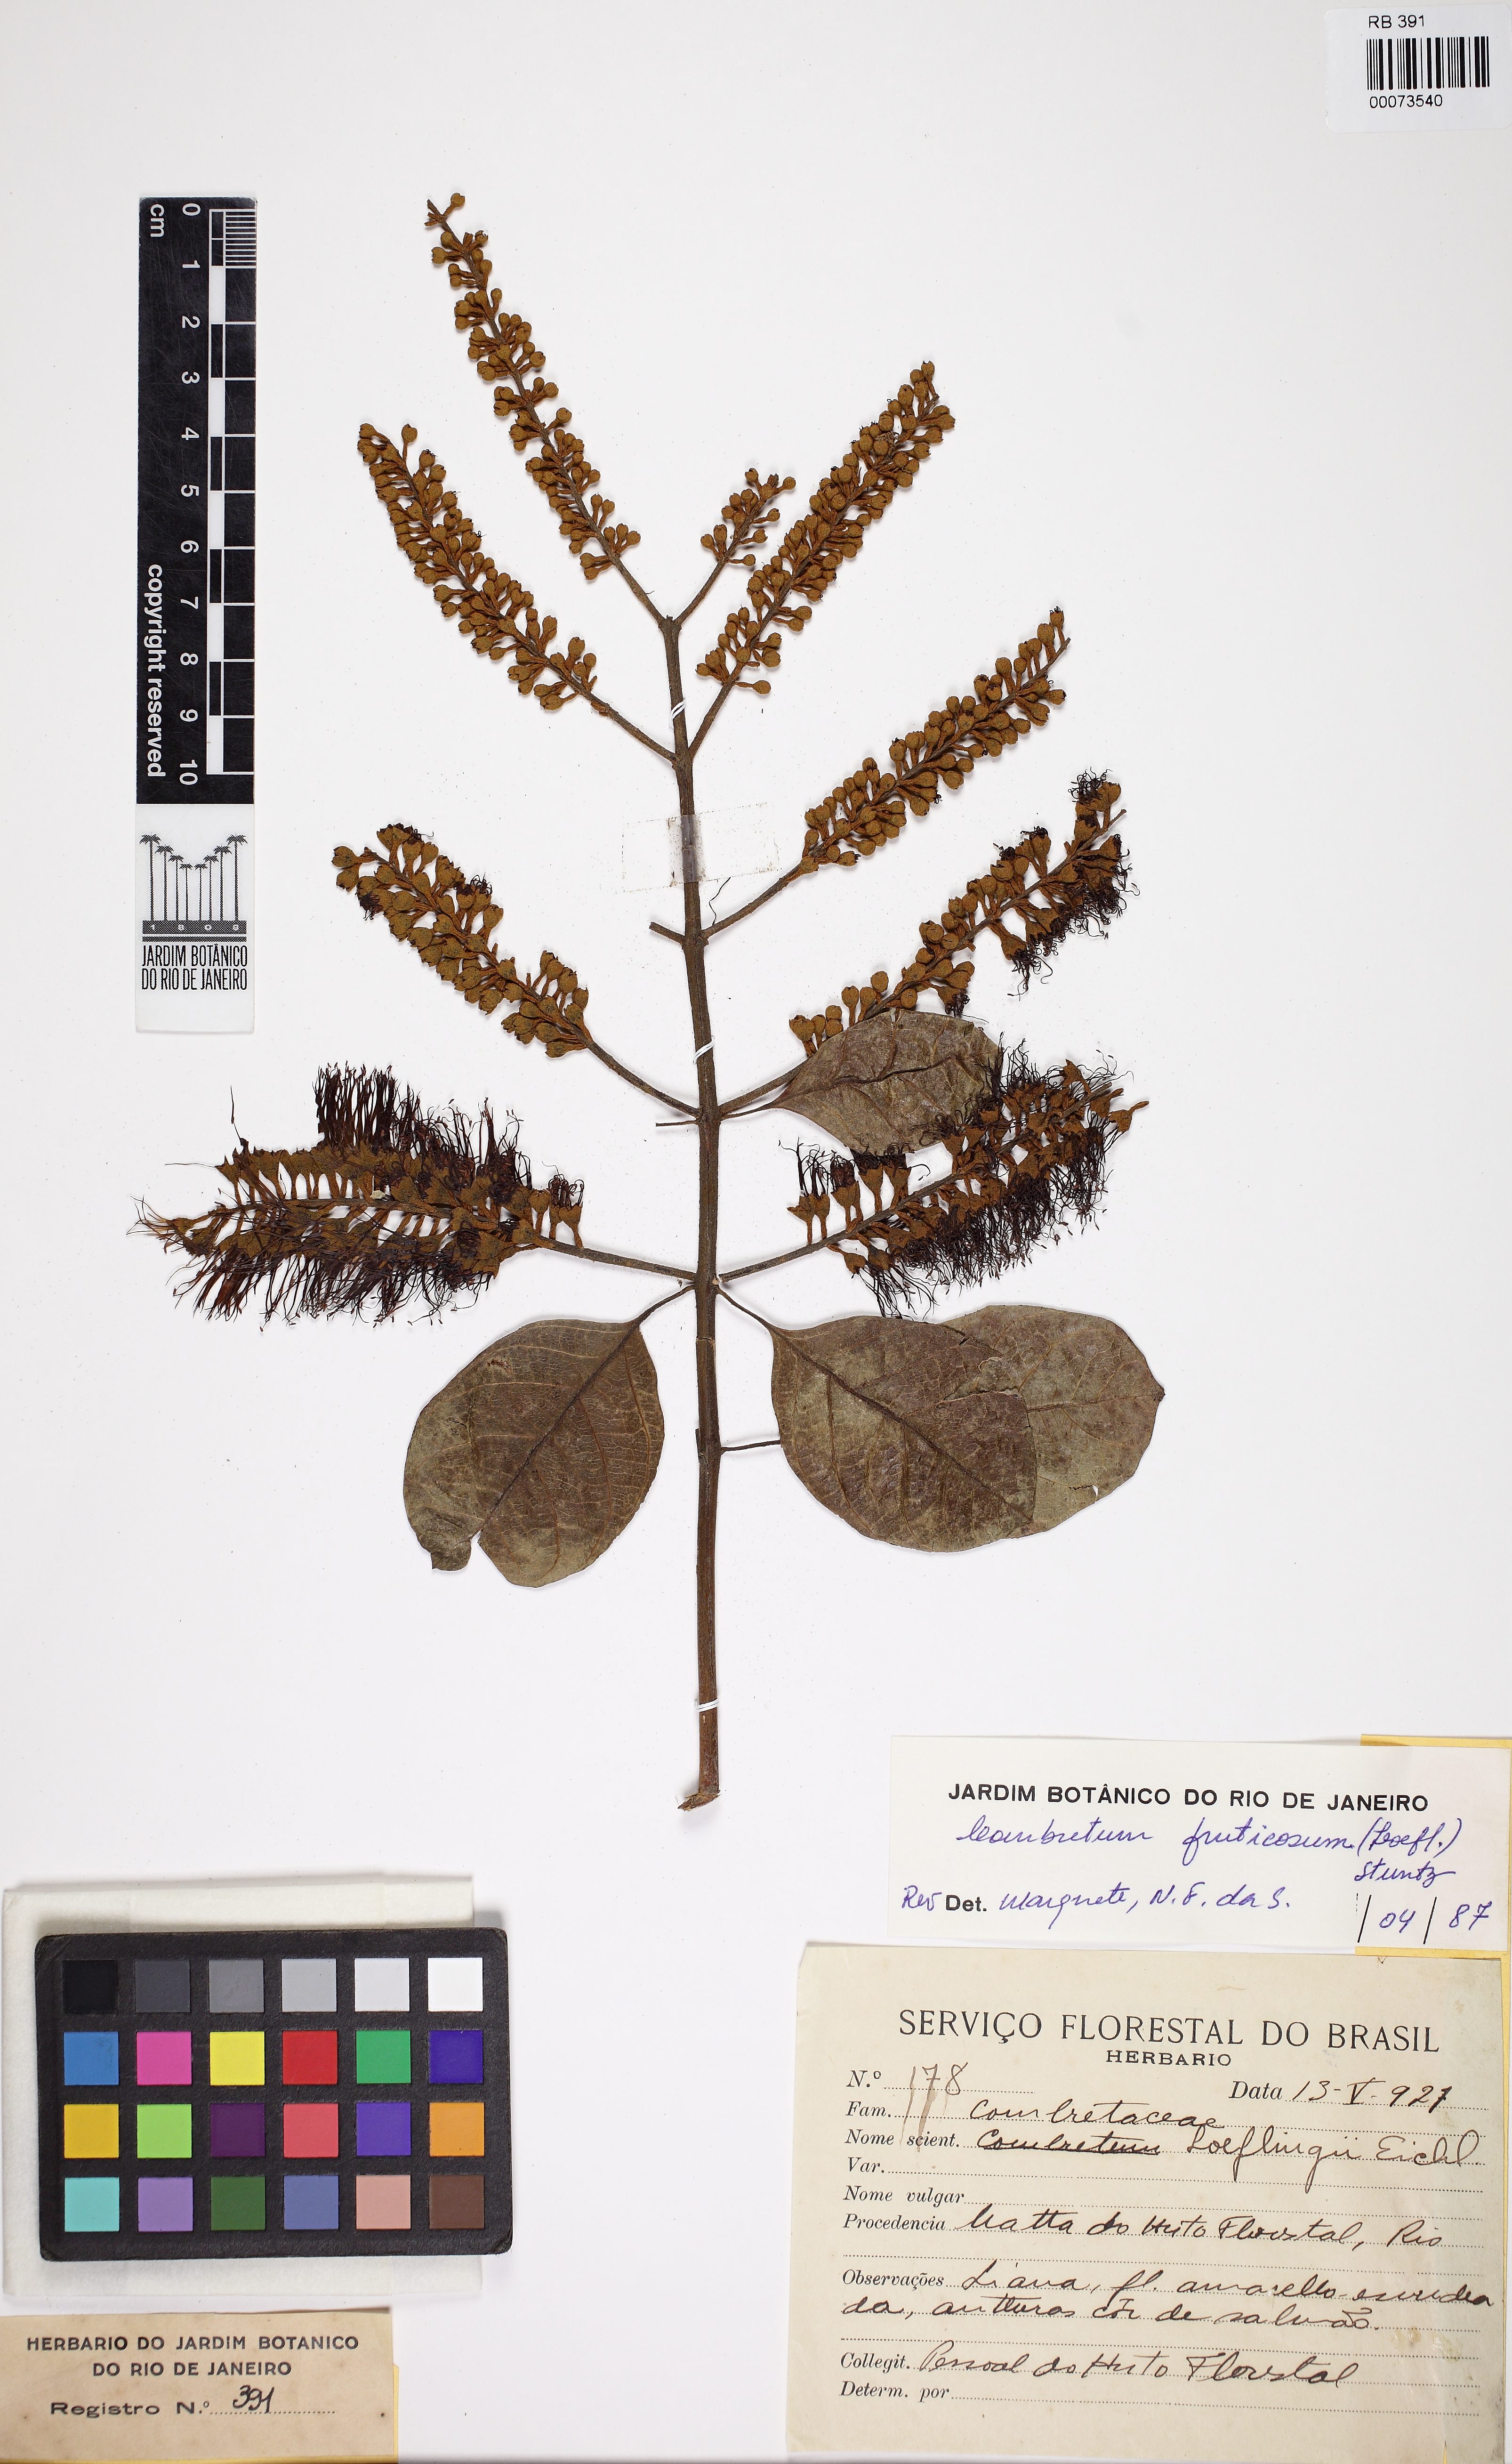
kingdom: Plantae
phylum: Tracheophyta
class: Magnoliopsida
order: Myrtales
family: Combretaceae
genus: Combretum
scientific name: Combretum fruticosum
